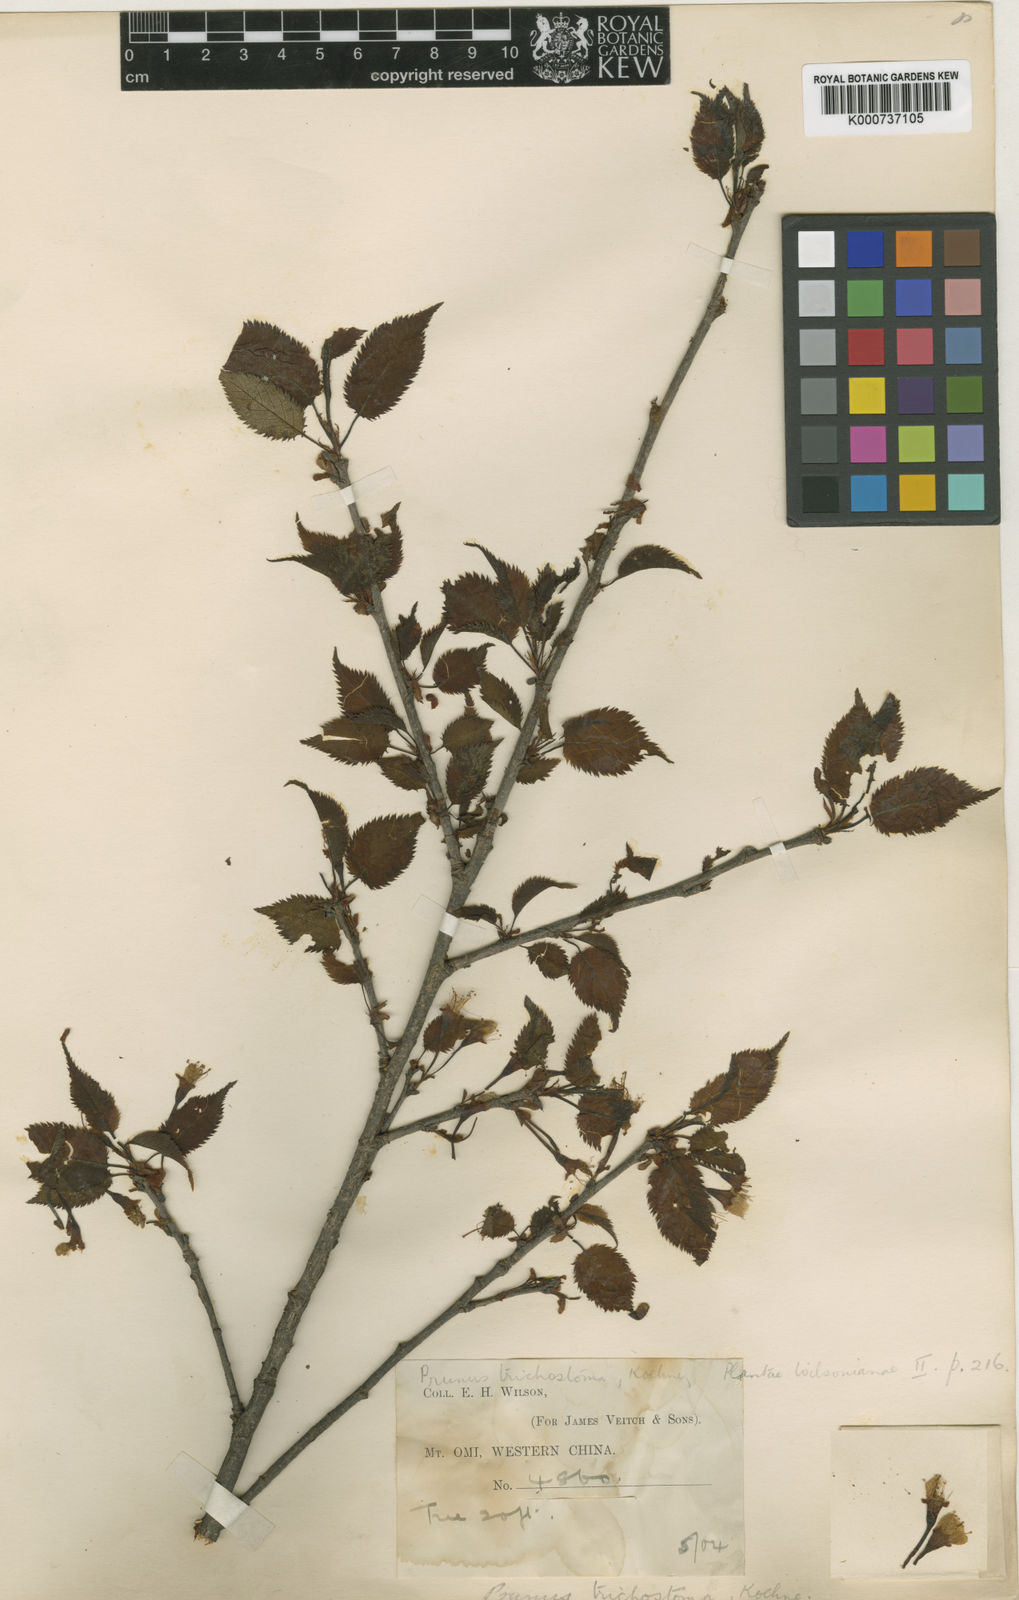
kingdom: Plantae
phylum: Tracheophyta
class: Magnoliopsida
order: Rosales
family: Rosaceae
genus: Prunus
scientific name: Prunus trichostoma
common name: Ribbed cherry
